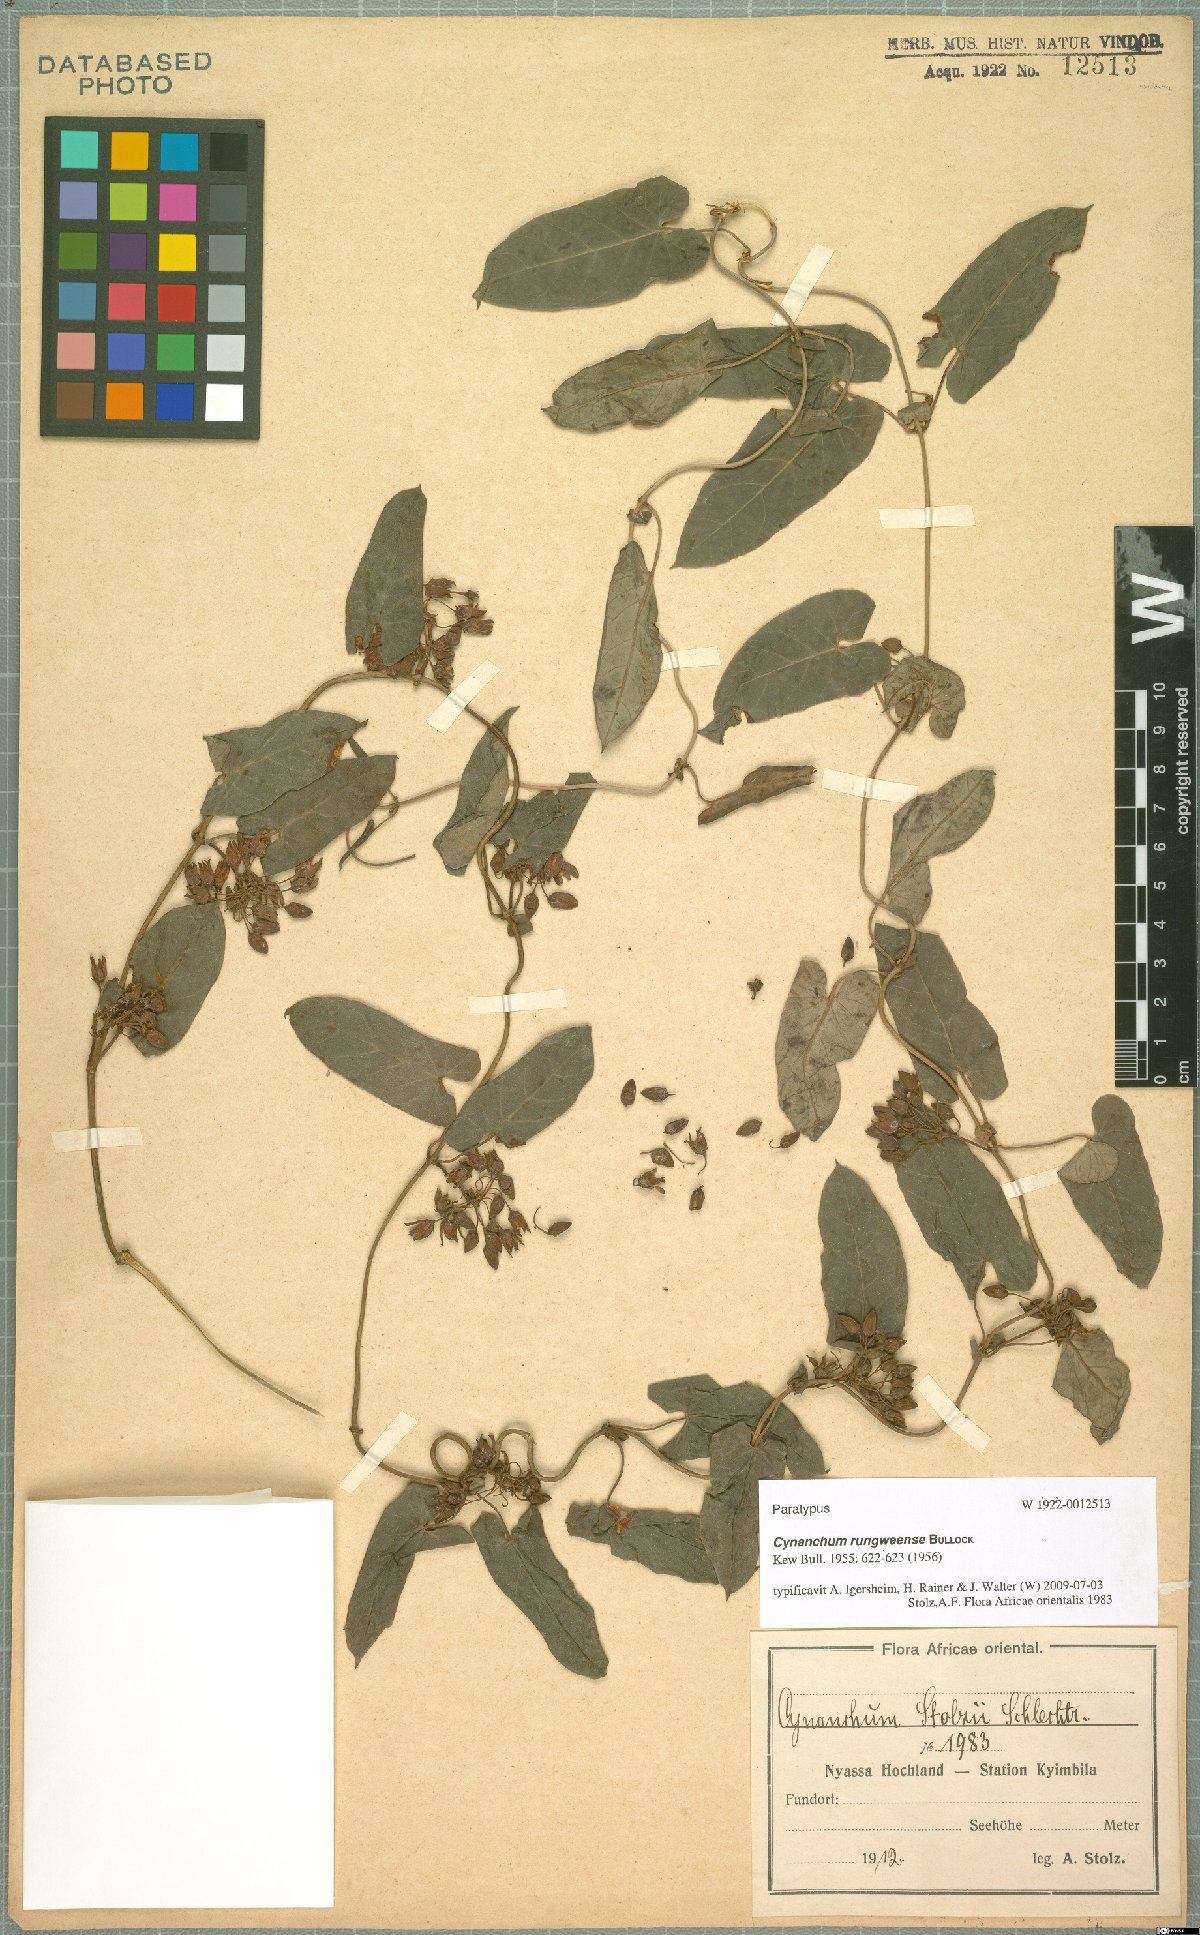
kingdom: Plantae
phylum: Tracheophyta
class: Magnoliopsida
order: Gentianales
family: Apocynaceae
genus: Cynanchum
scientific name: Cynanchum rungweense
